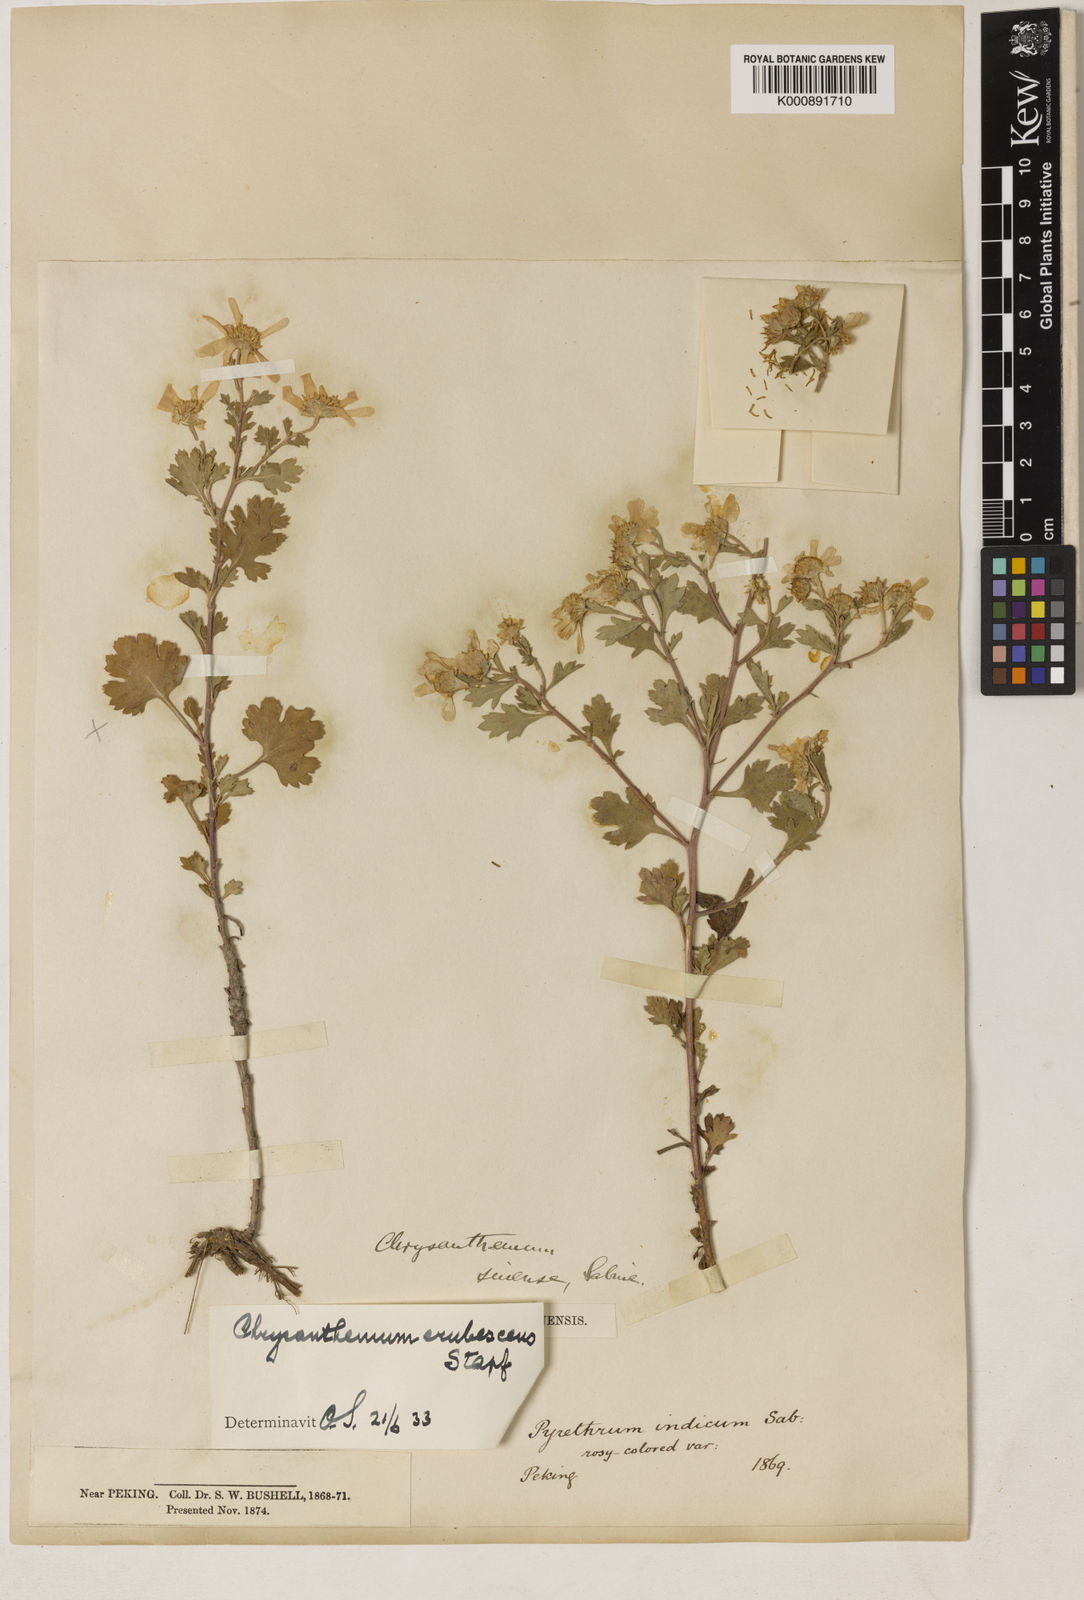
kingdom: Plantae
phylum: Tracheophyta
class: Magnoliopsida
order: Asterales
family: Asteraceae
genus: Chrysanthemum
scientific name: Chrysanthemum chanetii
